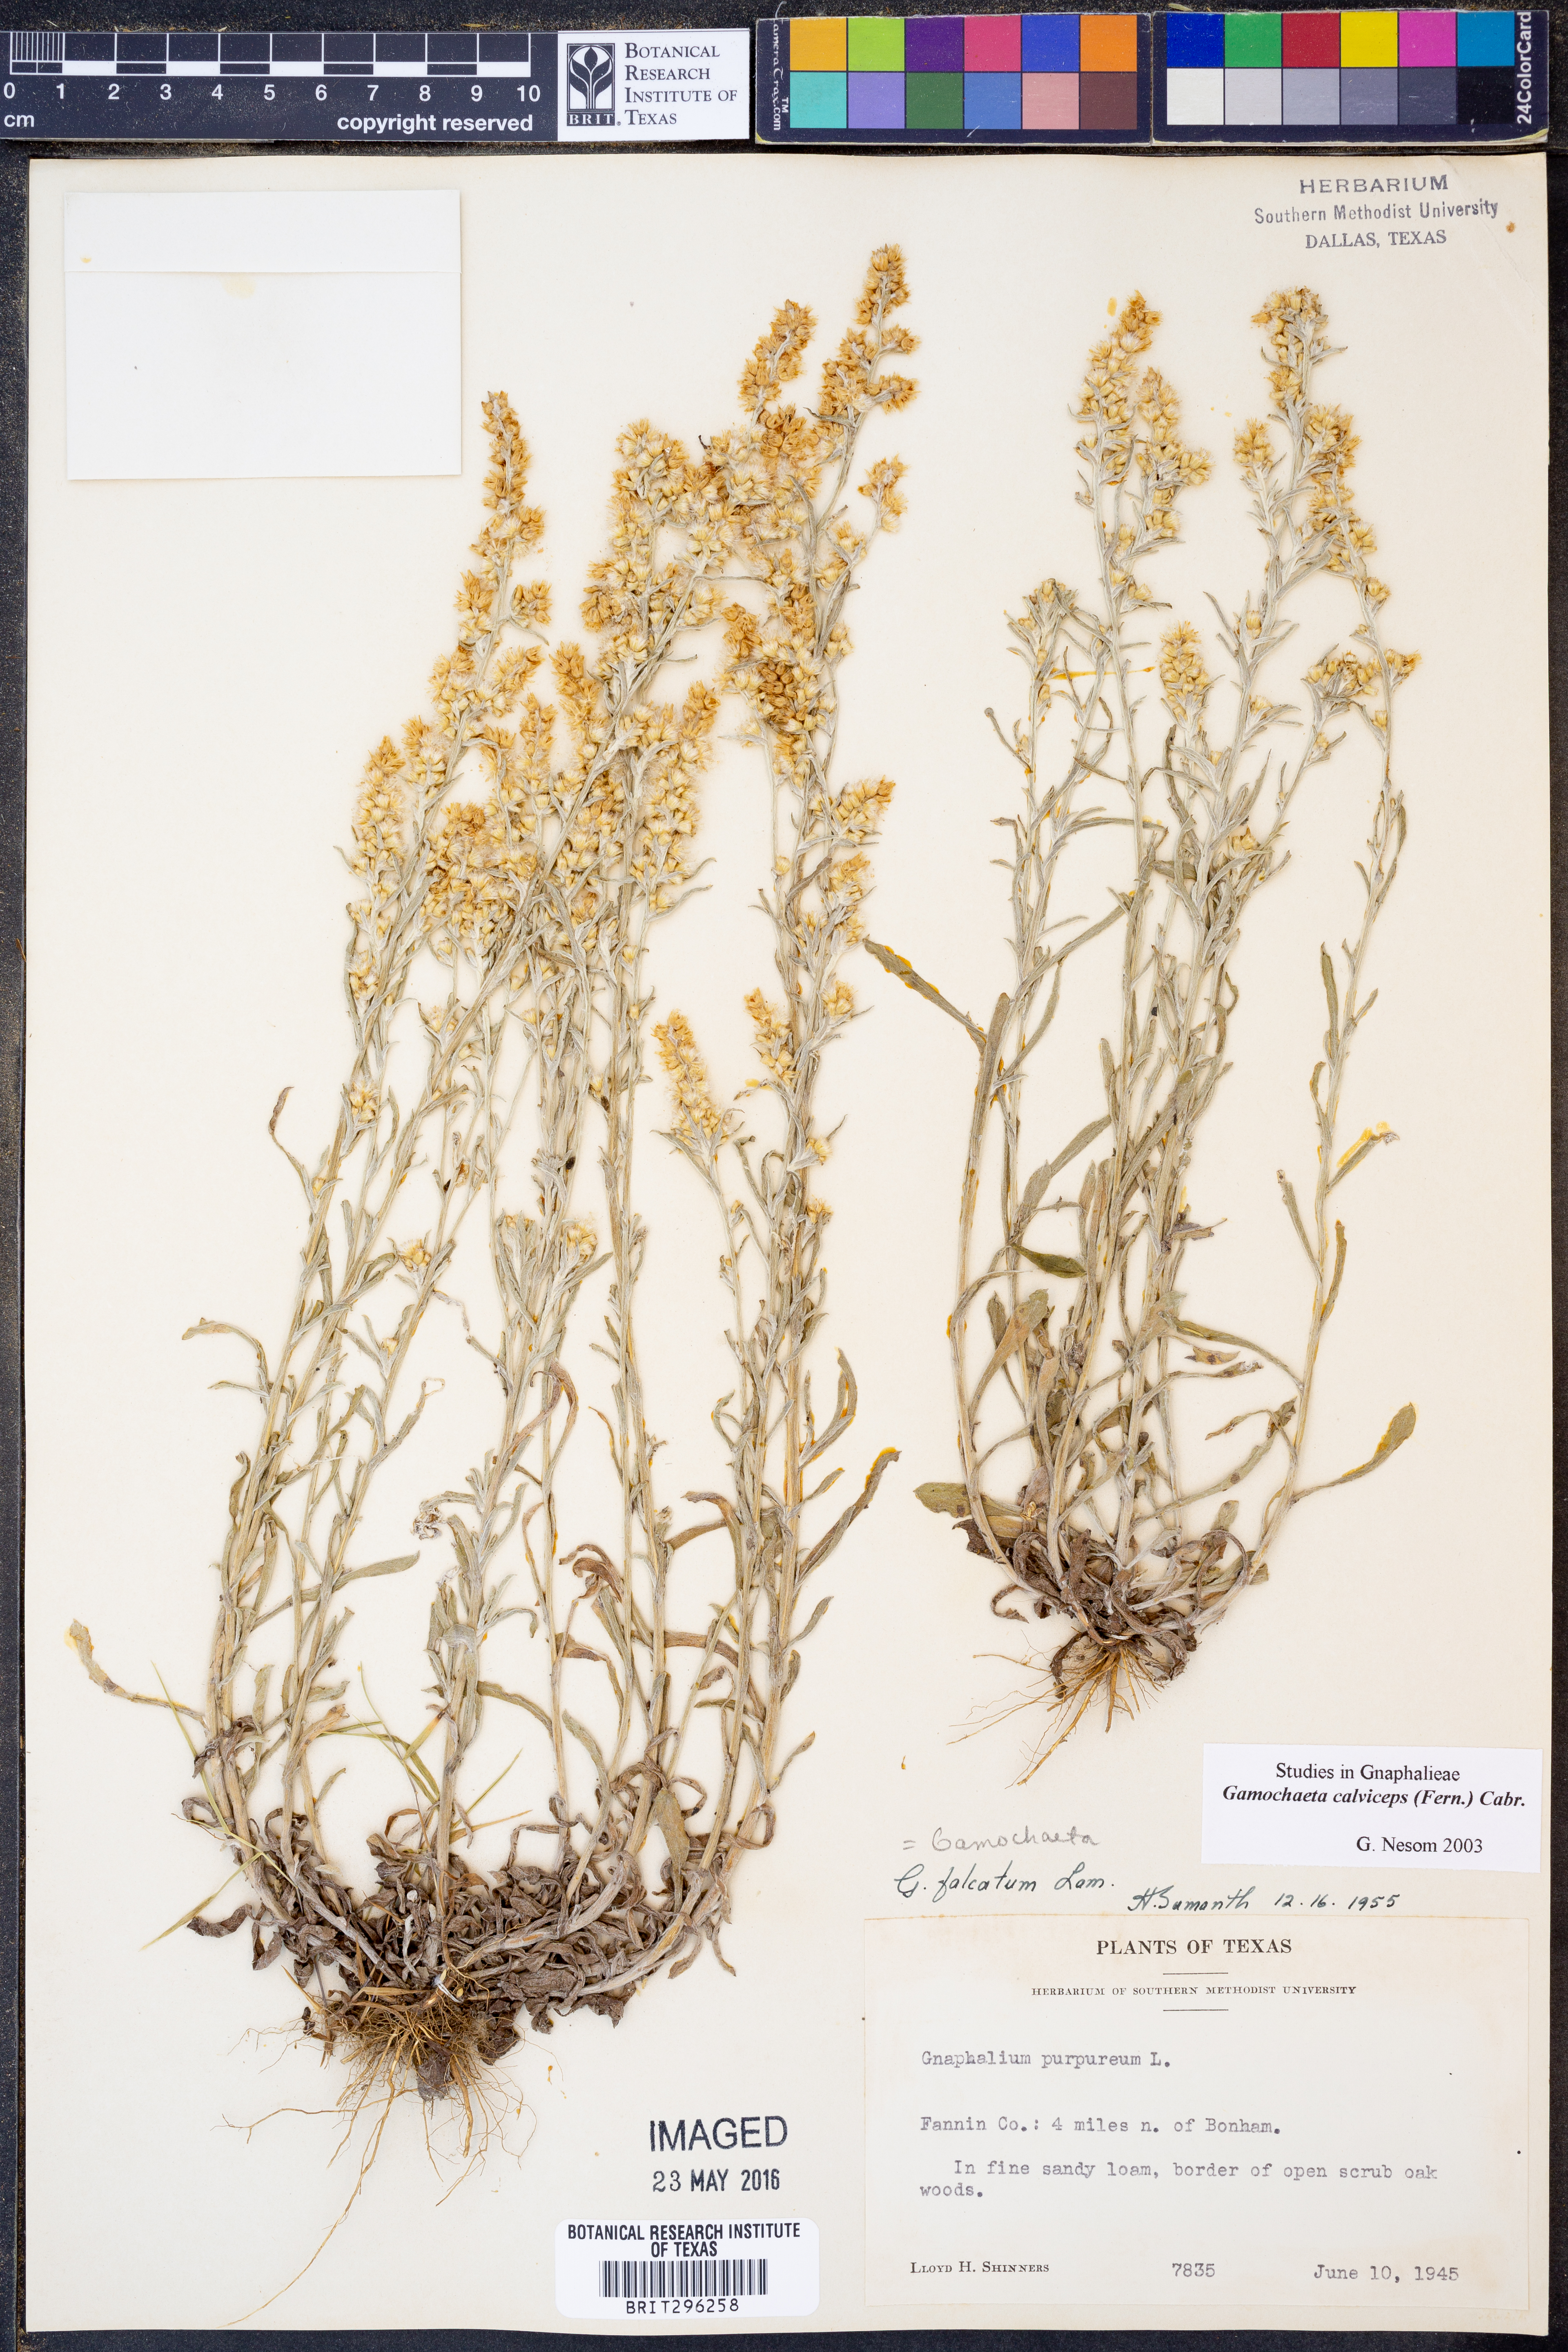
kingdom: Plantae
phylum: Tracheophyta
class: Magnoliopsida
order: Asterales
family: Asteraceae
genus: Gamochaeta
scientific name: Gamochaeta calviceps
